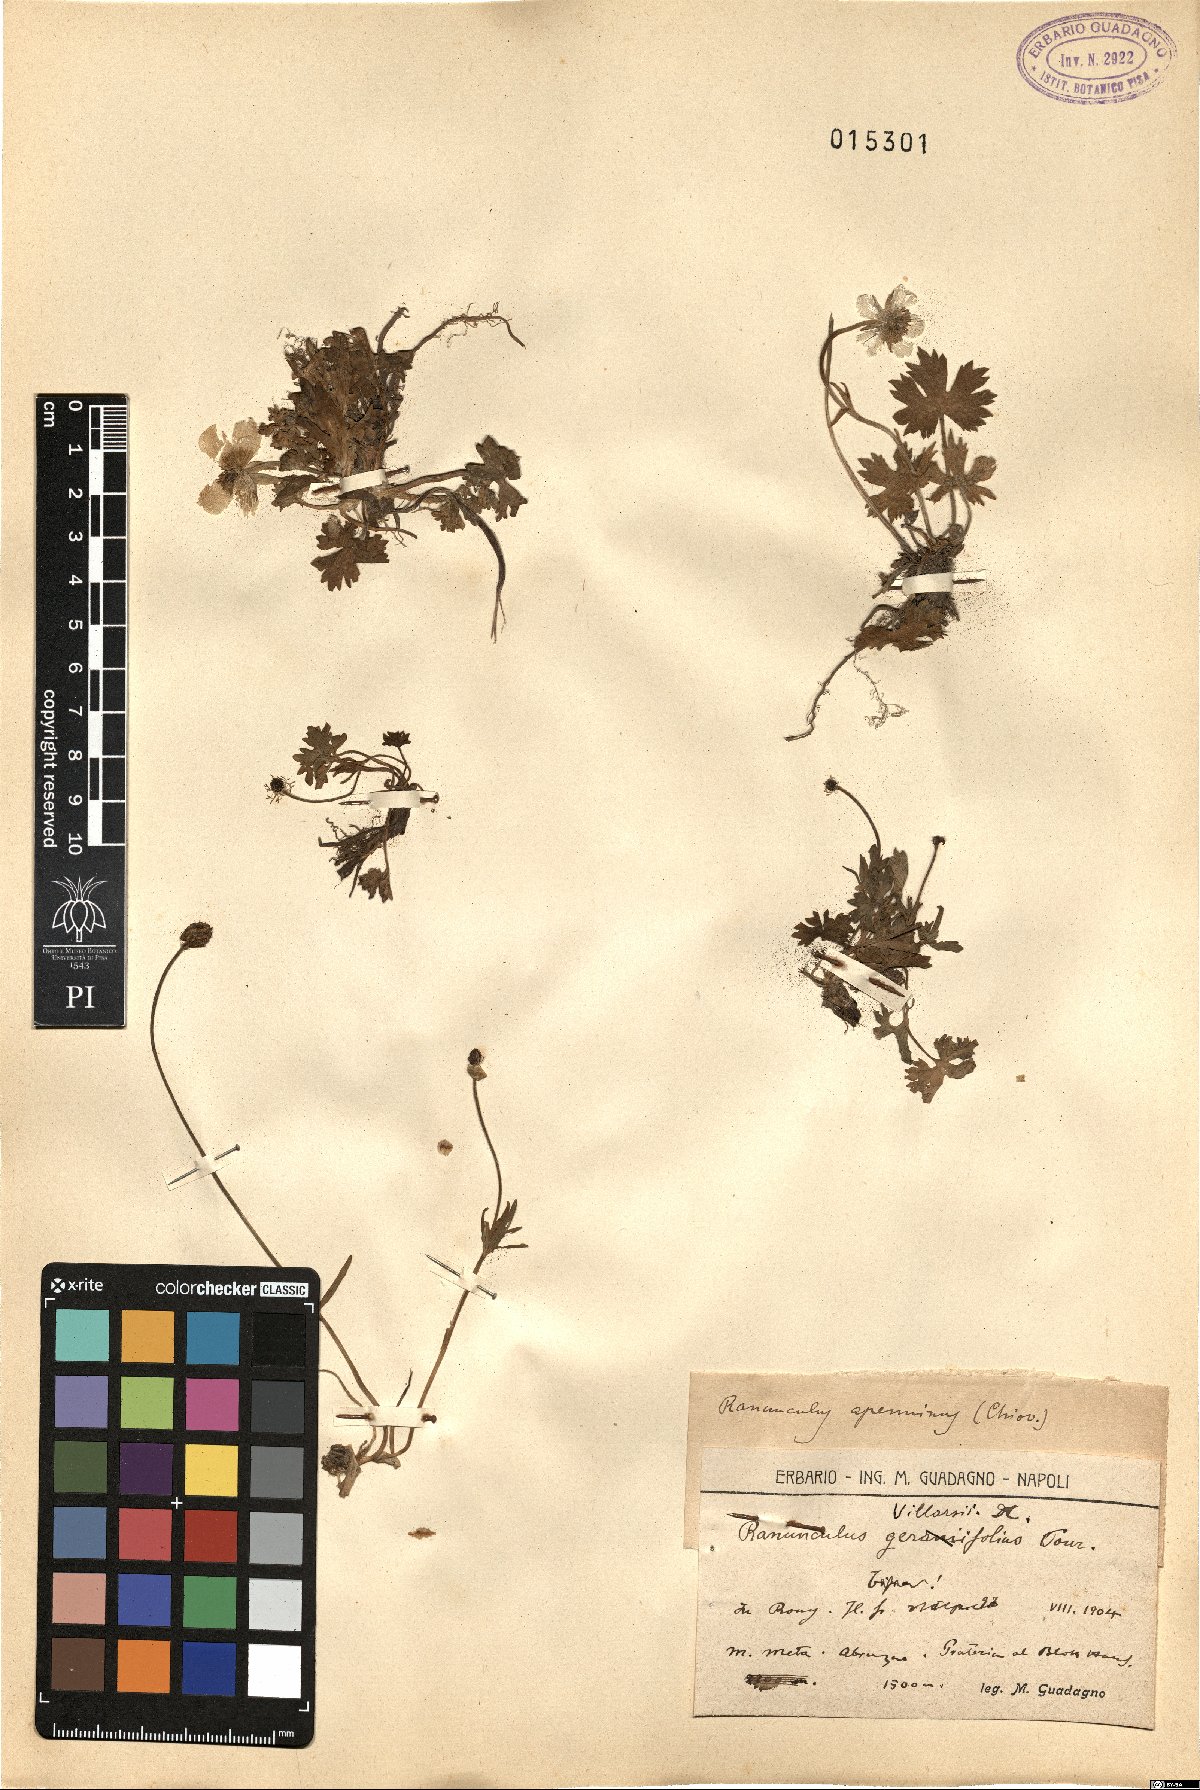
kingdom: Plantae
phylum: Tracheophyta
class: Magnoliopsida
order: Ranunculales
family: Ranunculaceae
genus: Ranunculus
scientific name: Ranunculus apenninus
